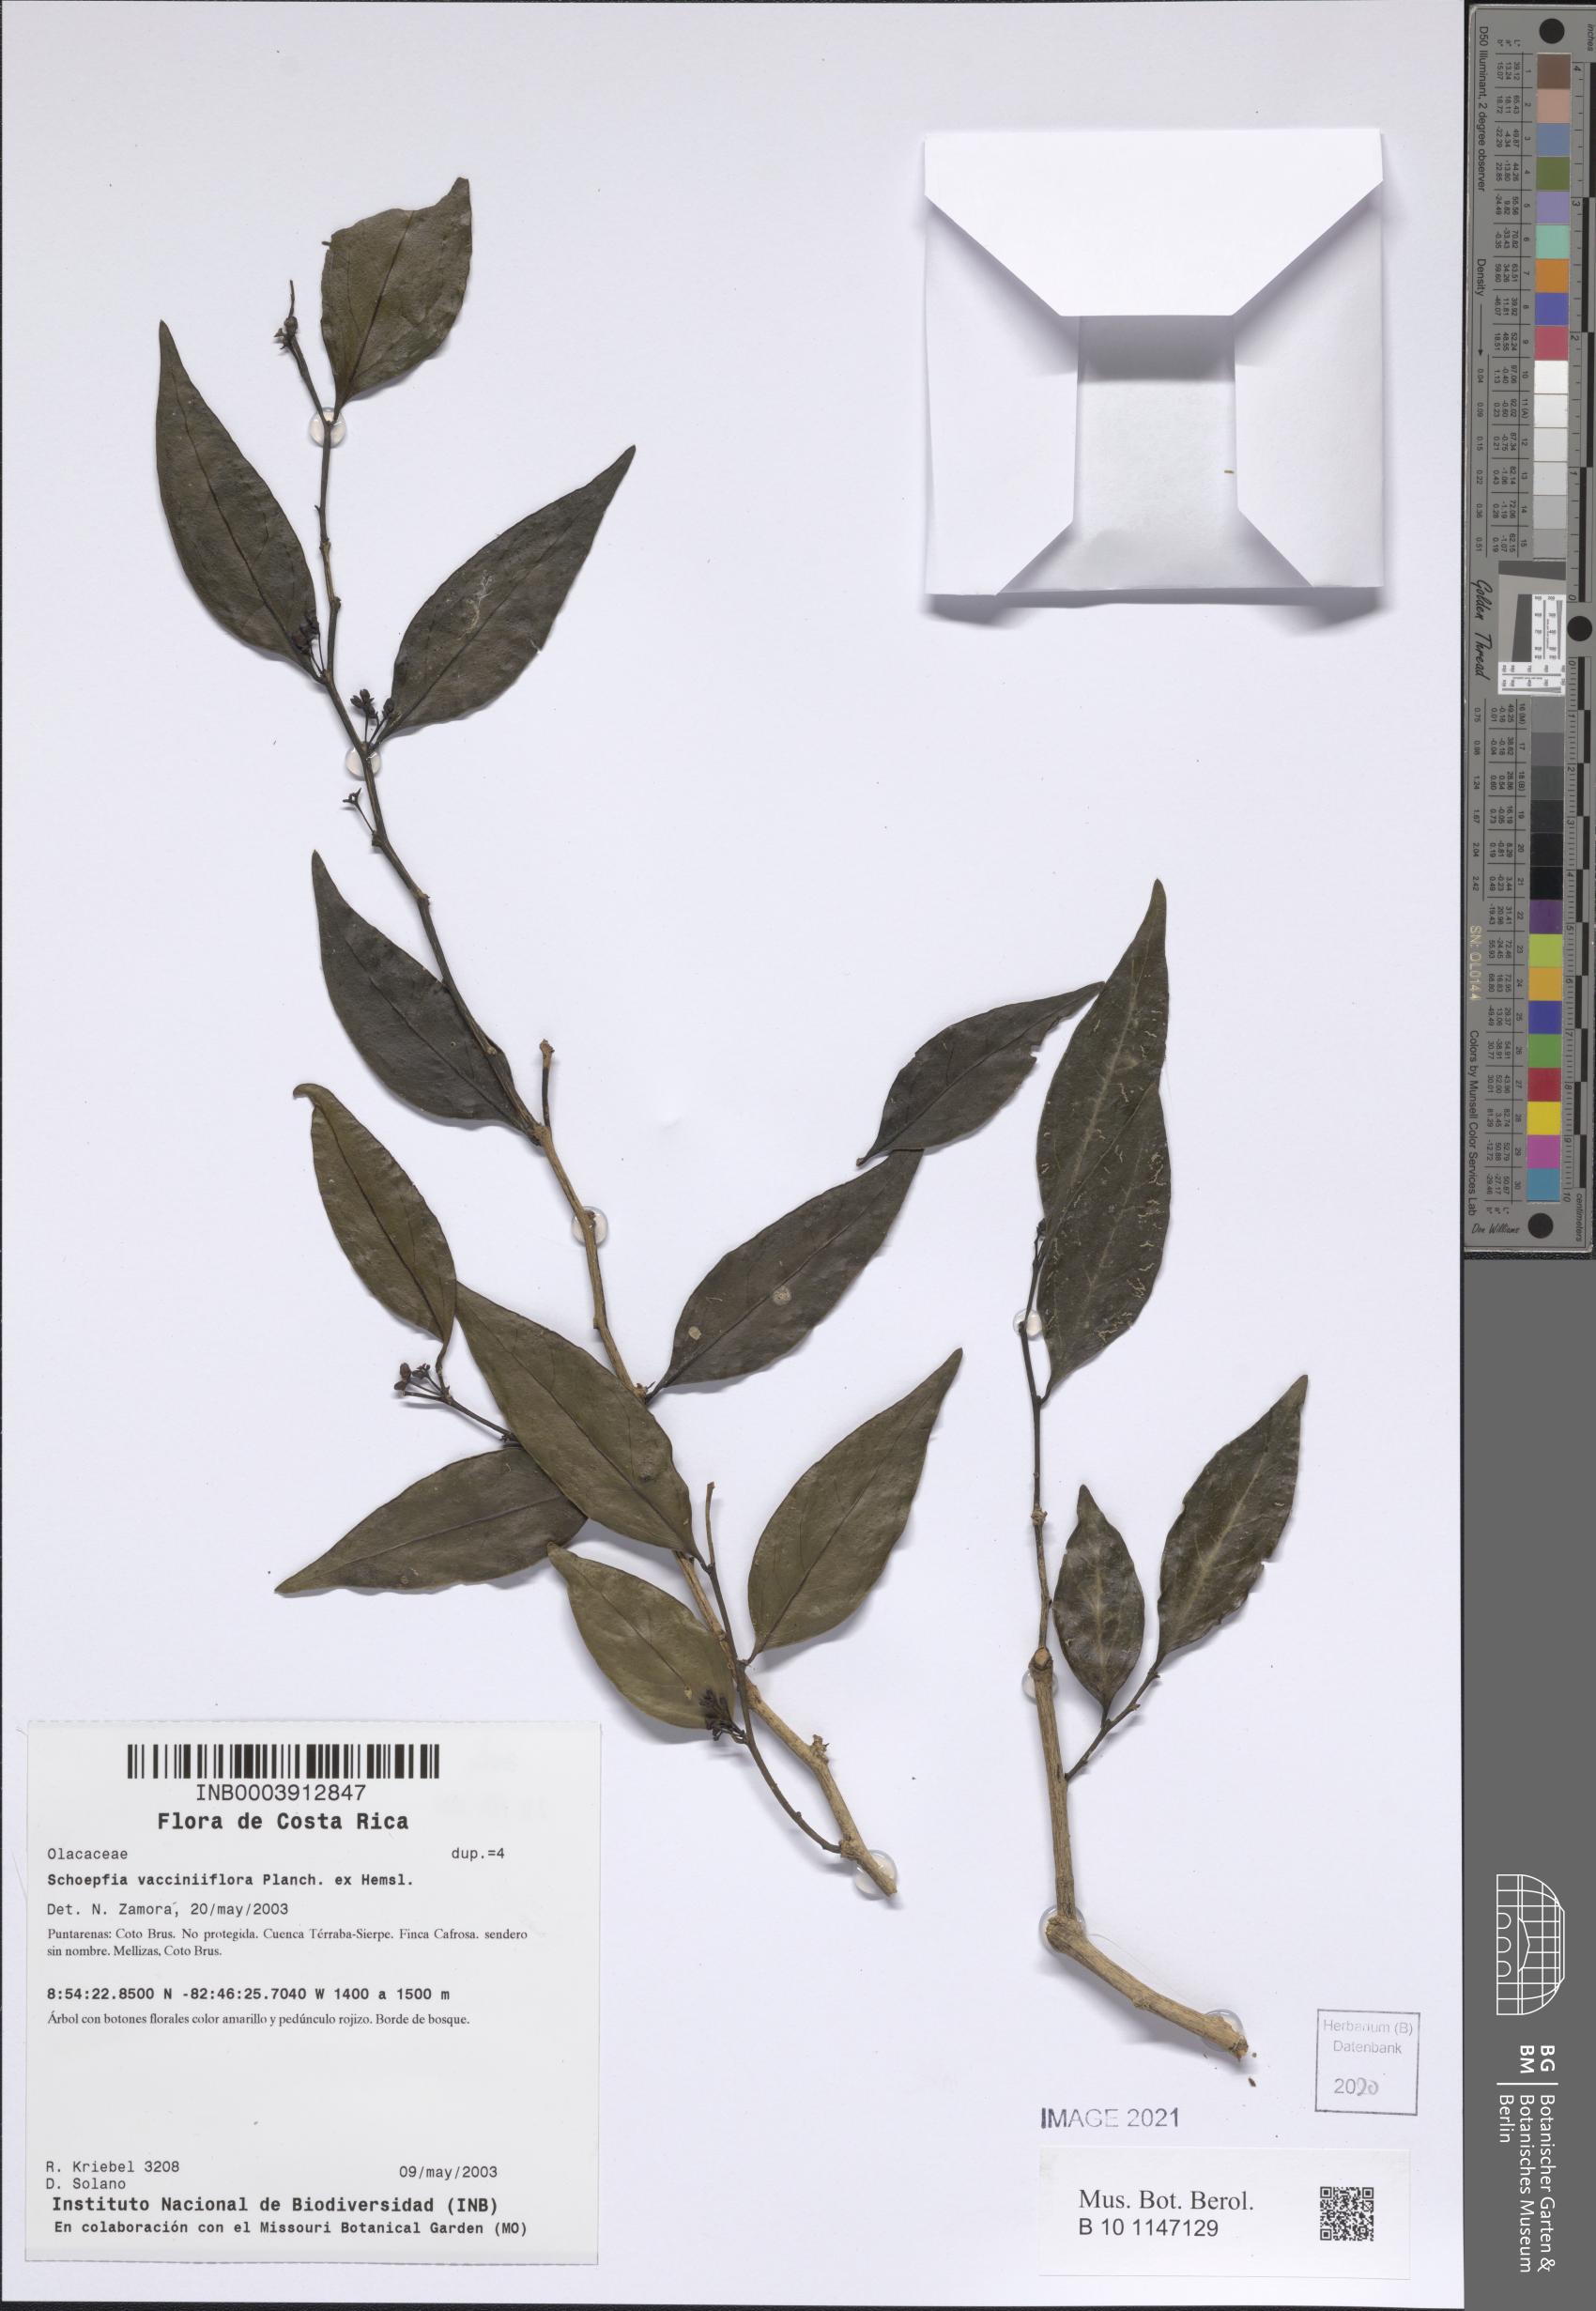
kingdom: Plantae
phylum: Tracheophyta
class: Magnoliopsida
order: Santalales
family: Schoepfiaceae
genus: Schoepfia
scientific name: Schoepfia vacciniiflora
